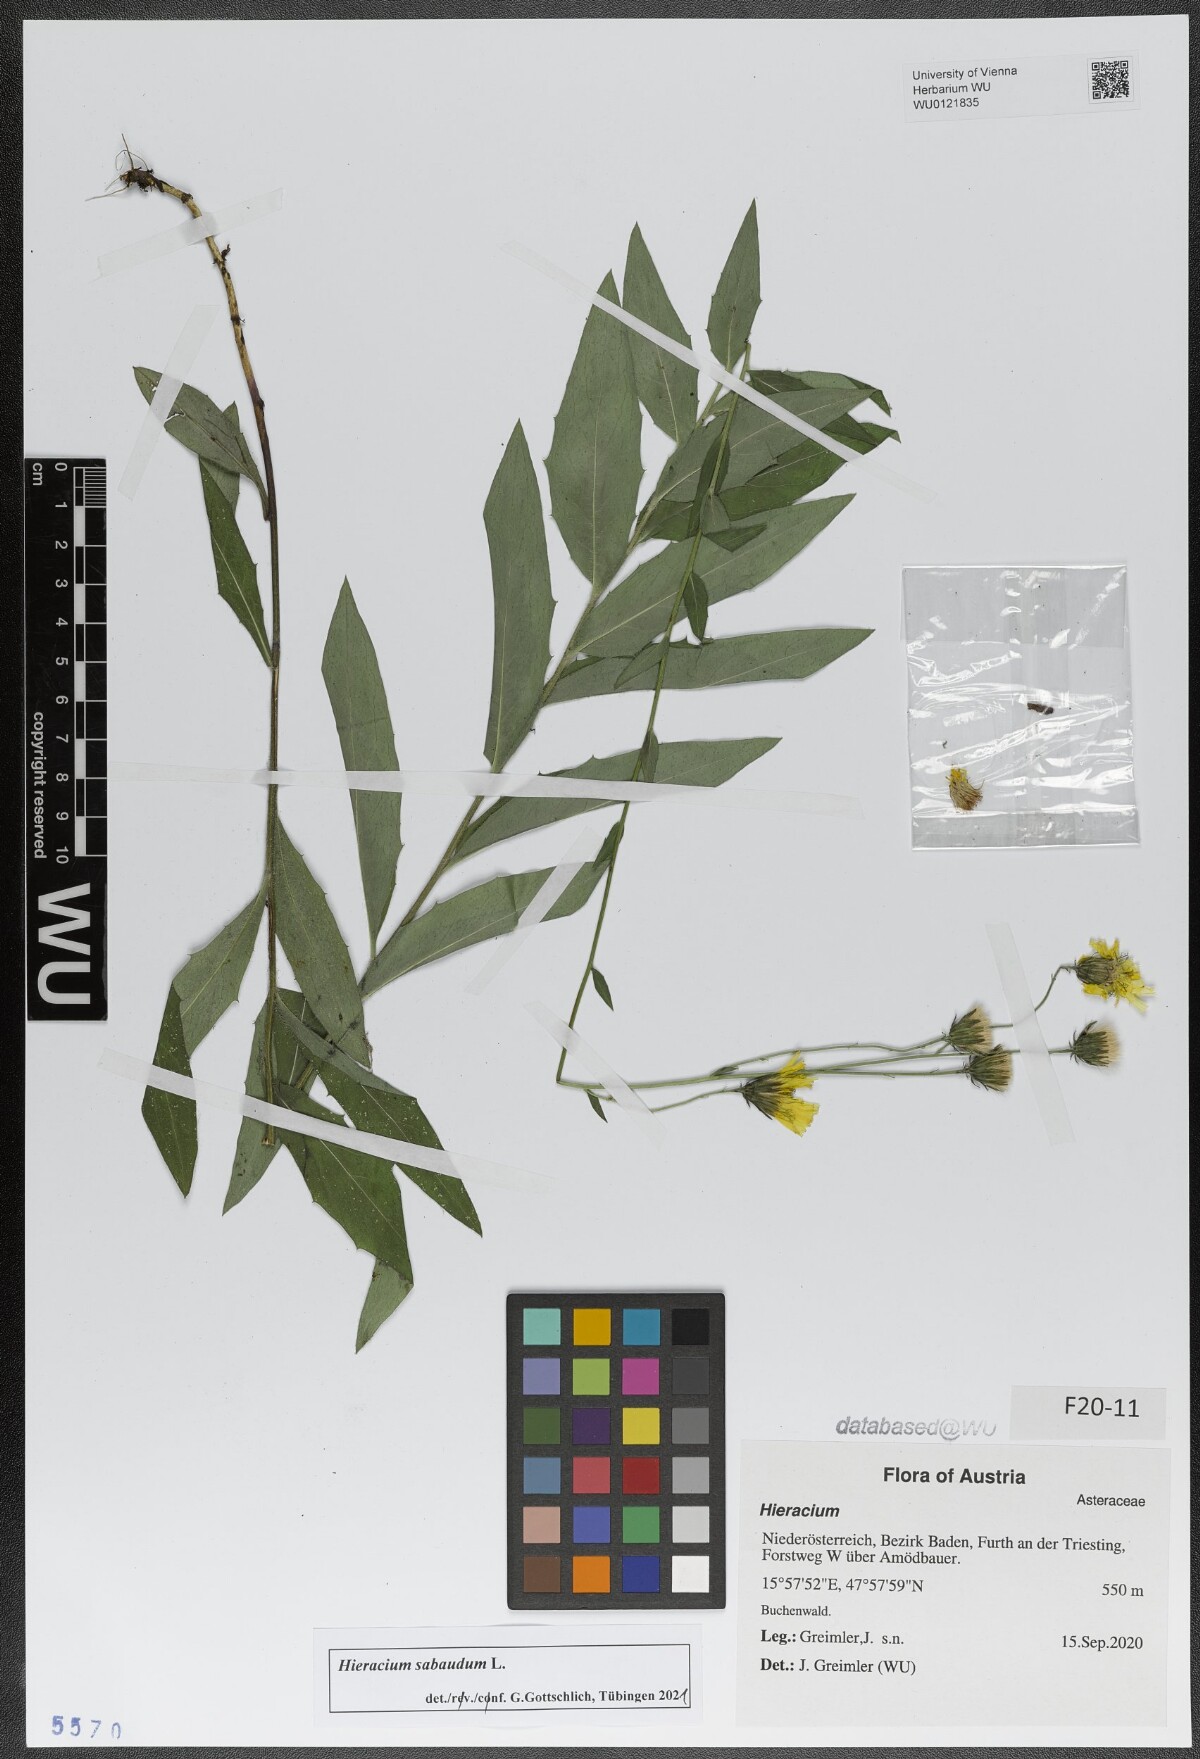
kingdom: Plantae
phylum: Tracheophyta
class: Magnoliopsida
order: Asterales
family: Asteraceae
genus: Hieracium
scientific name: Hieracium sabaudum
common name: New england hawkweed
